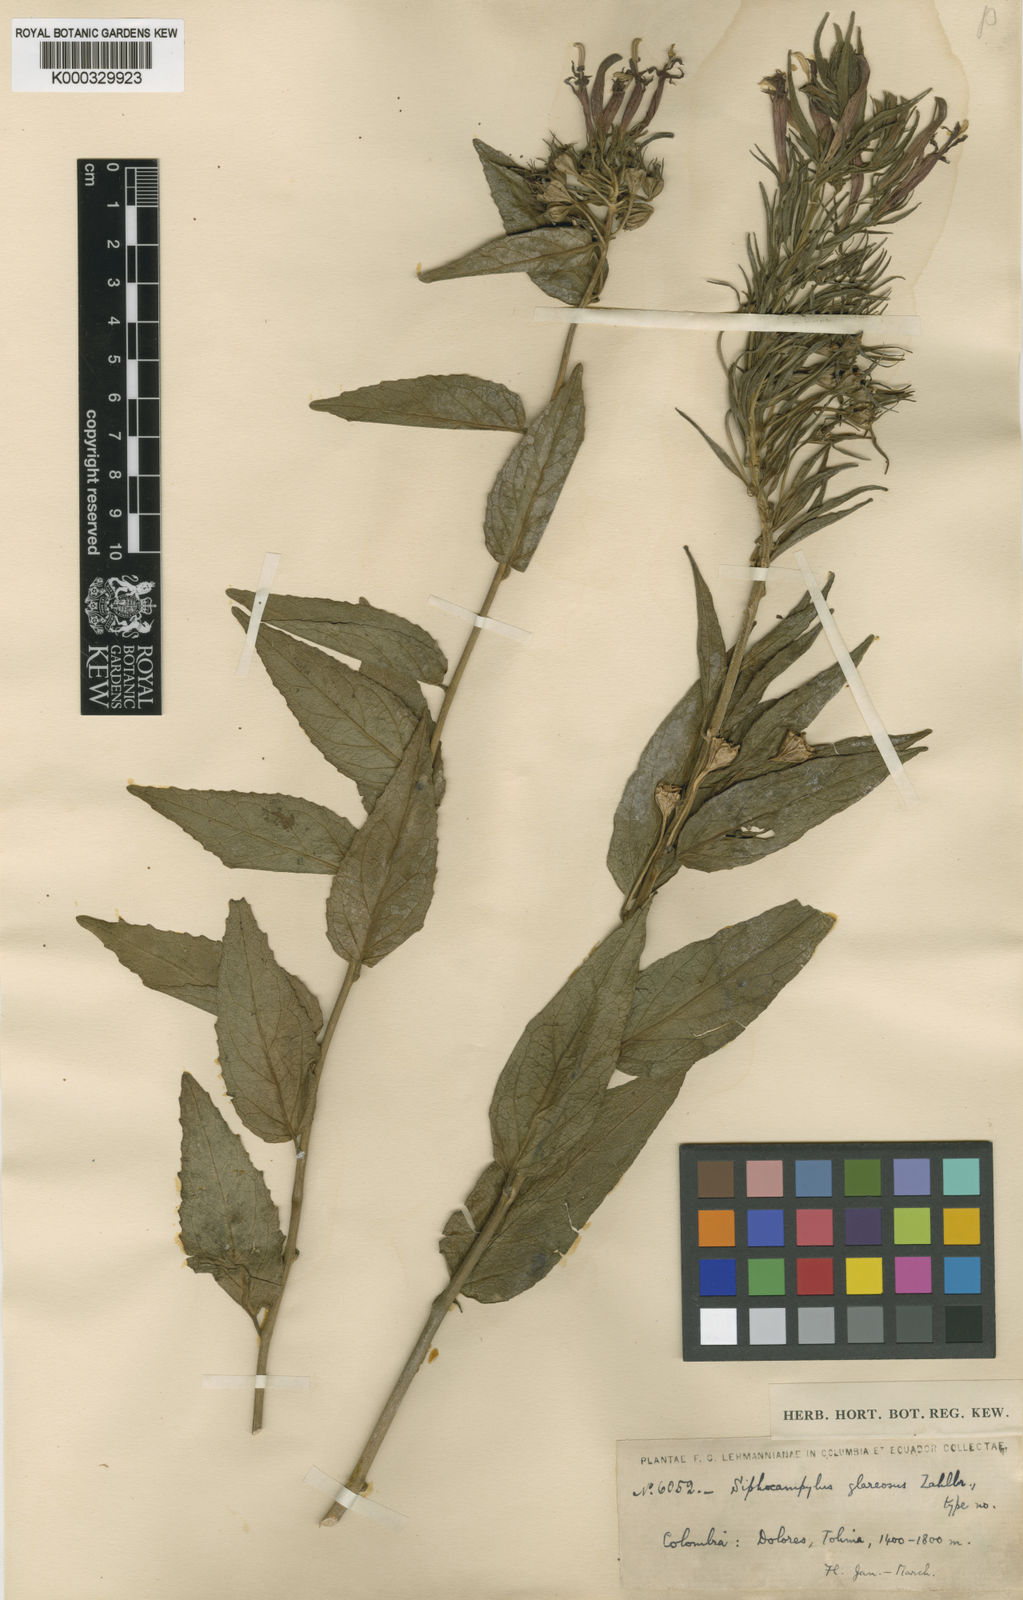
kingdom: Plantae
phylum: Tracheophyta
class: Magnoliopsida
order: Asterales
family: Campanulaceae
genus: Siphocampylus
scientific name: Siphocampylus glareosus
